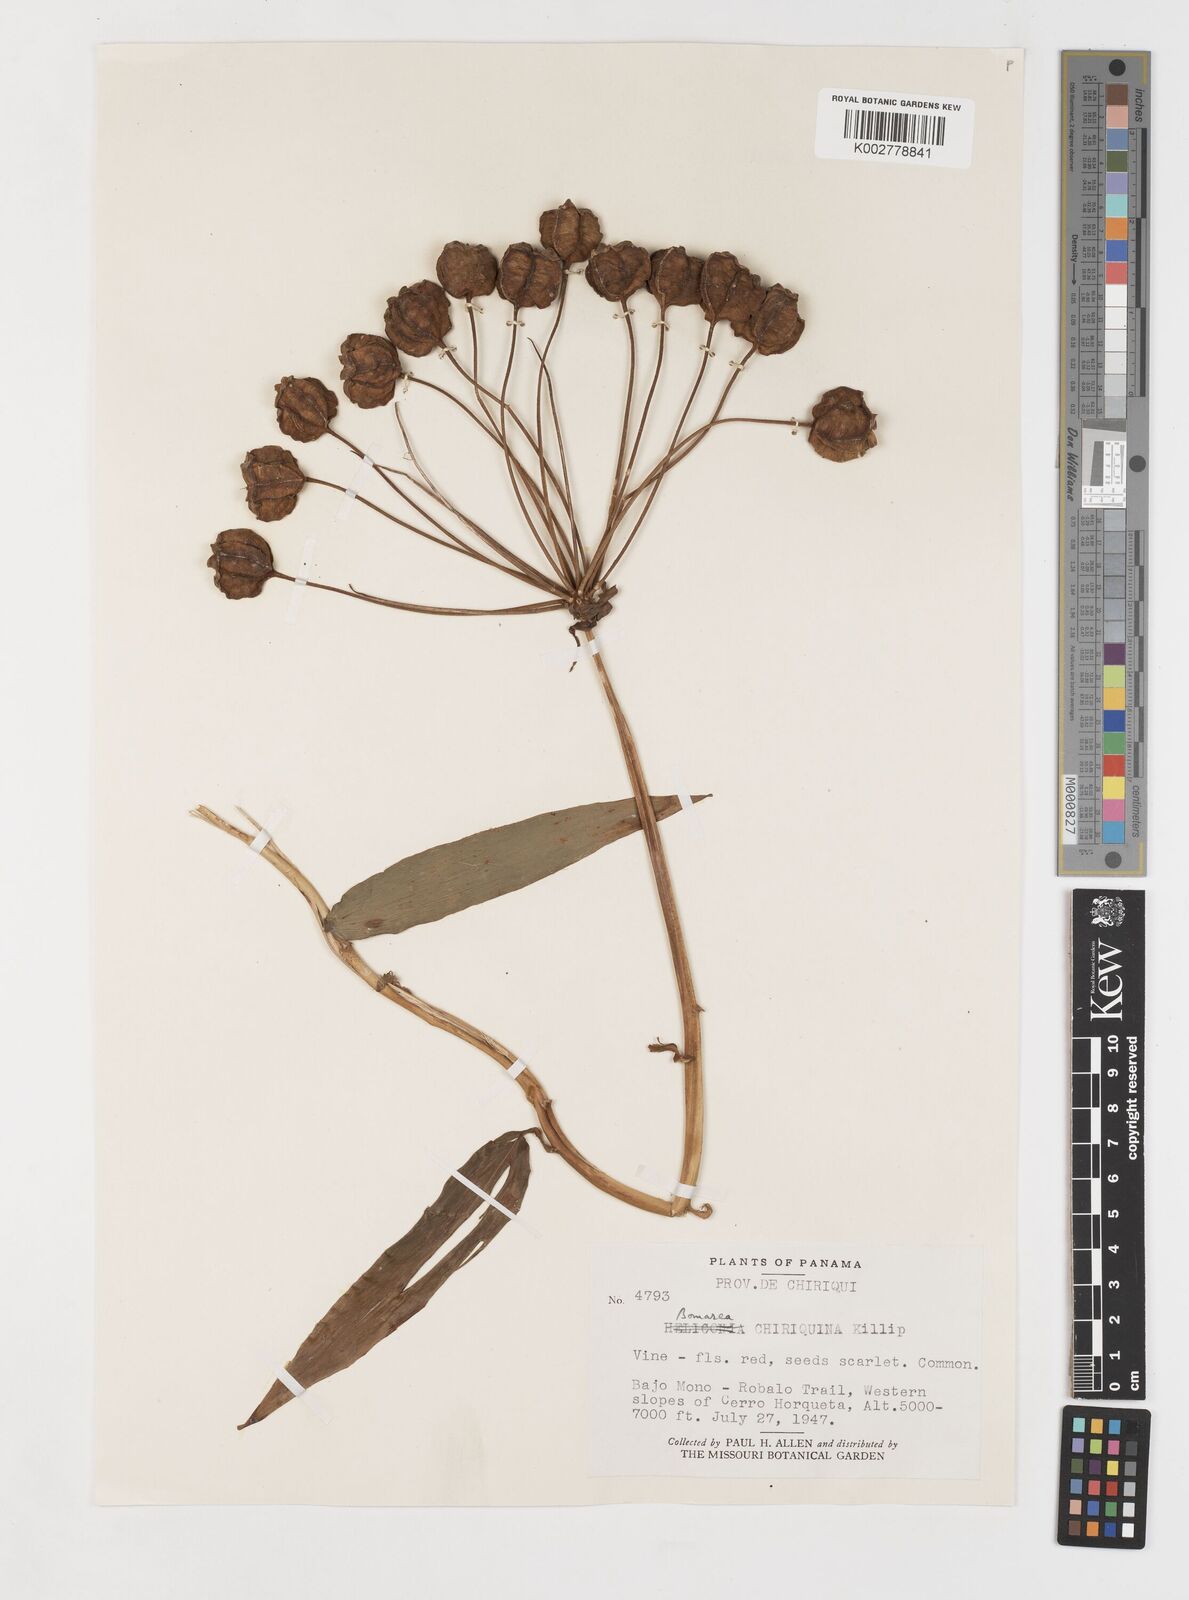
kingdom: Plantae
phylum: Tracheophyta
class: Liliopsida
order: Liliales
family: Alstroemeriaceae
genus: Bomarea
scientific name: Bomarea chiriquina
